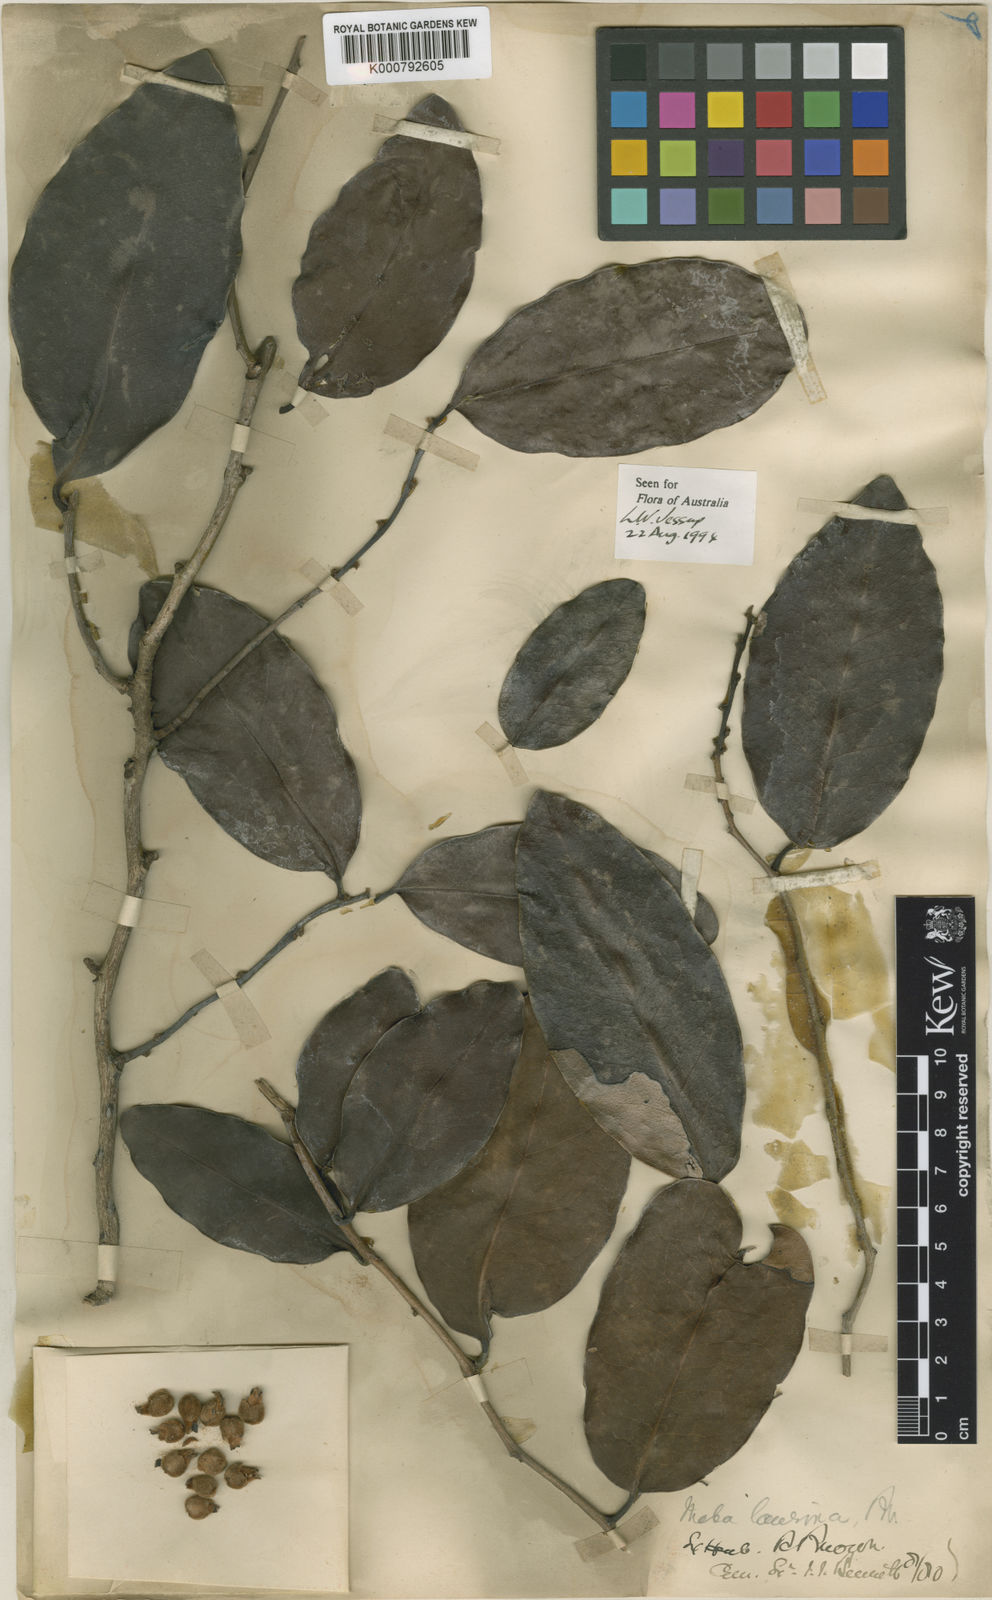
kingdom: Plantae
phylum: Tracheophyta
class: Magnoliopsida
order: Ericales
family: Ebenaceae
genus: Diospyros
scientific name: Diospyros labillardierei
